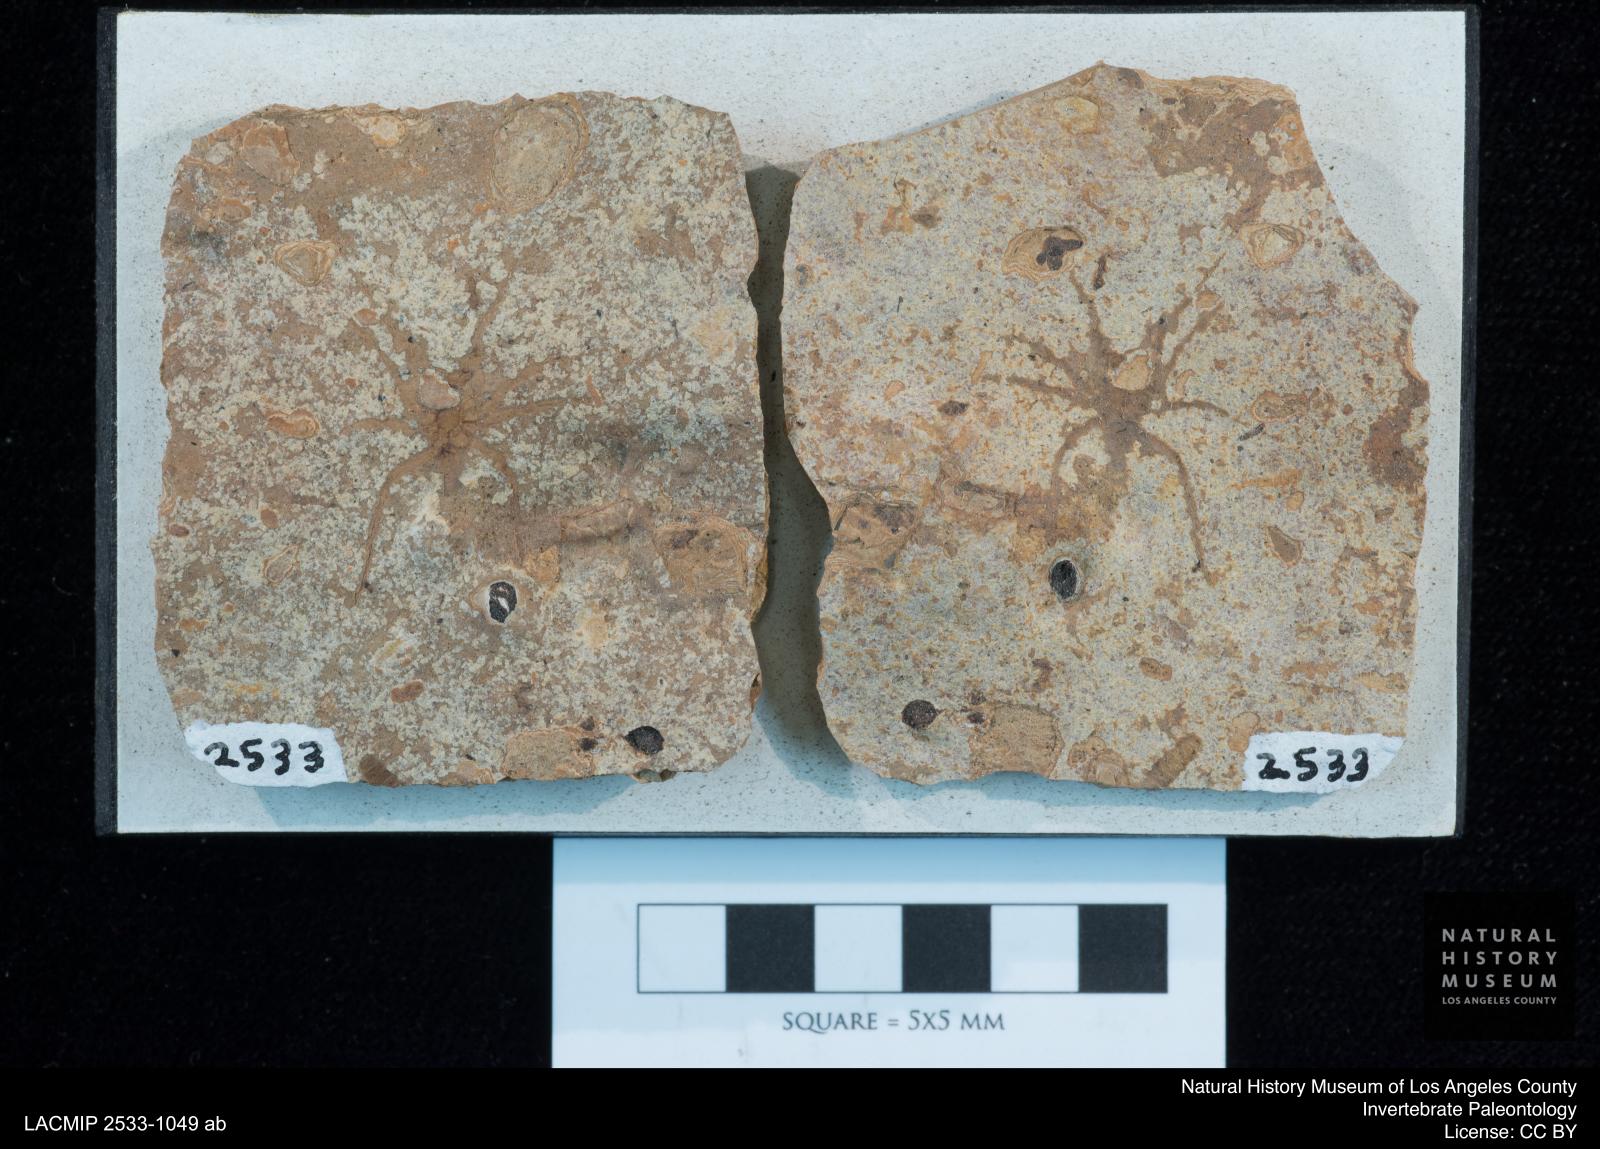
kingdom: Animalia
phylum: Arthropoda
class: Arachnida
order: Araneae
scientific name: Araneae
